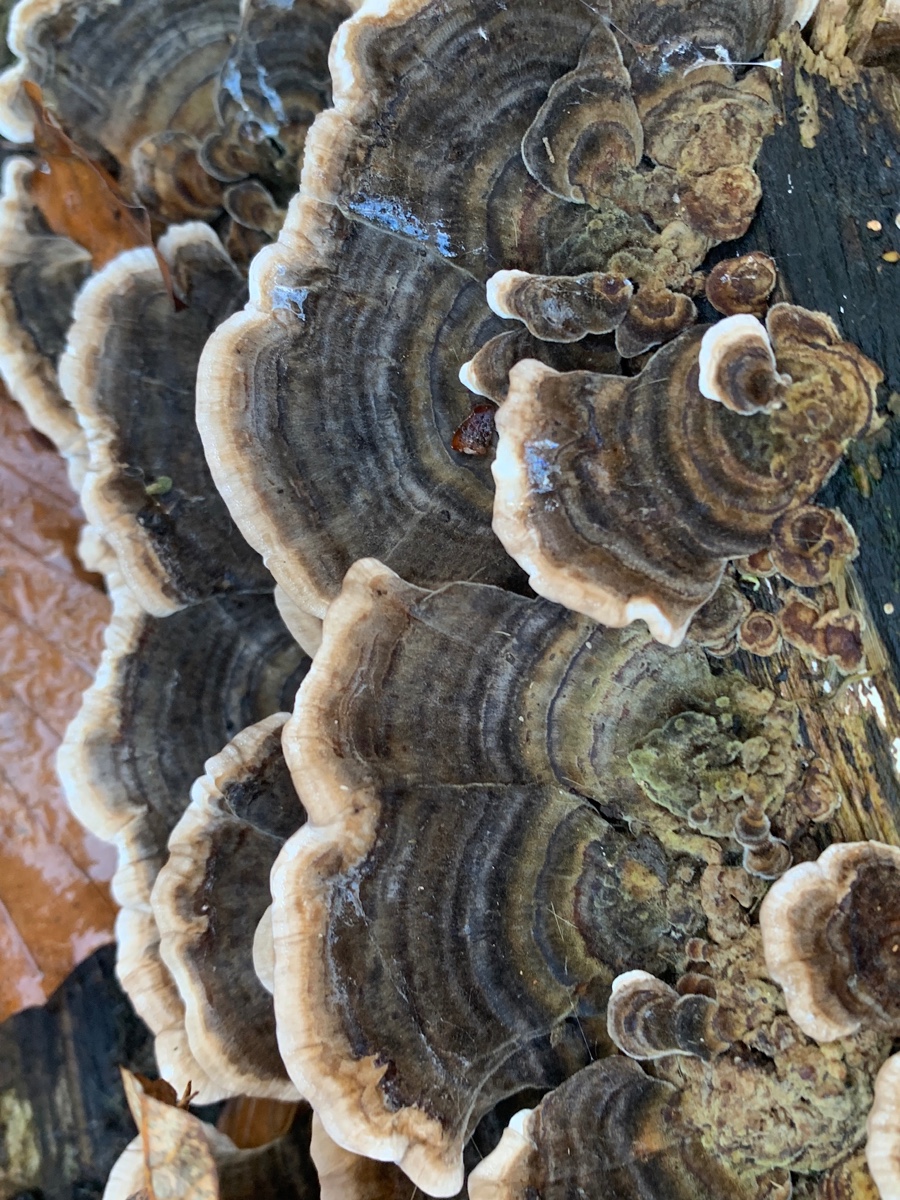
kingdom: Fungi
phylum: Basidiomycota
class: Agaricomycetes
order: Polyporales
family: Polyporaceae
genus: Trametes
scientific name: Trametes versicolor
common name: broget læderporesvamp
